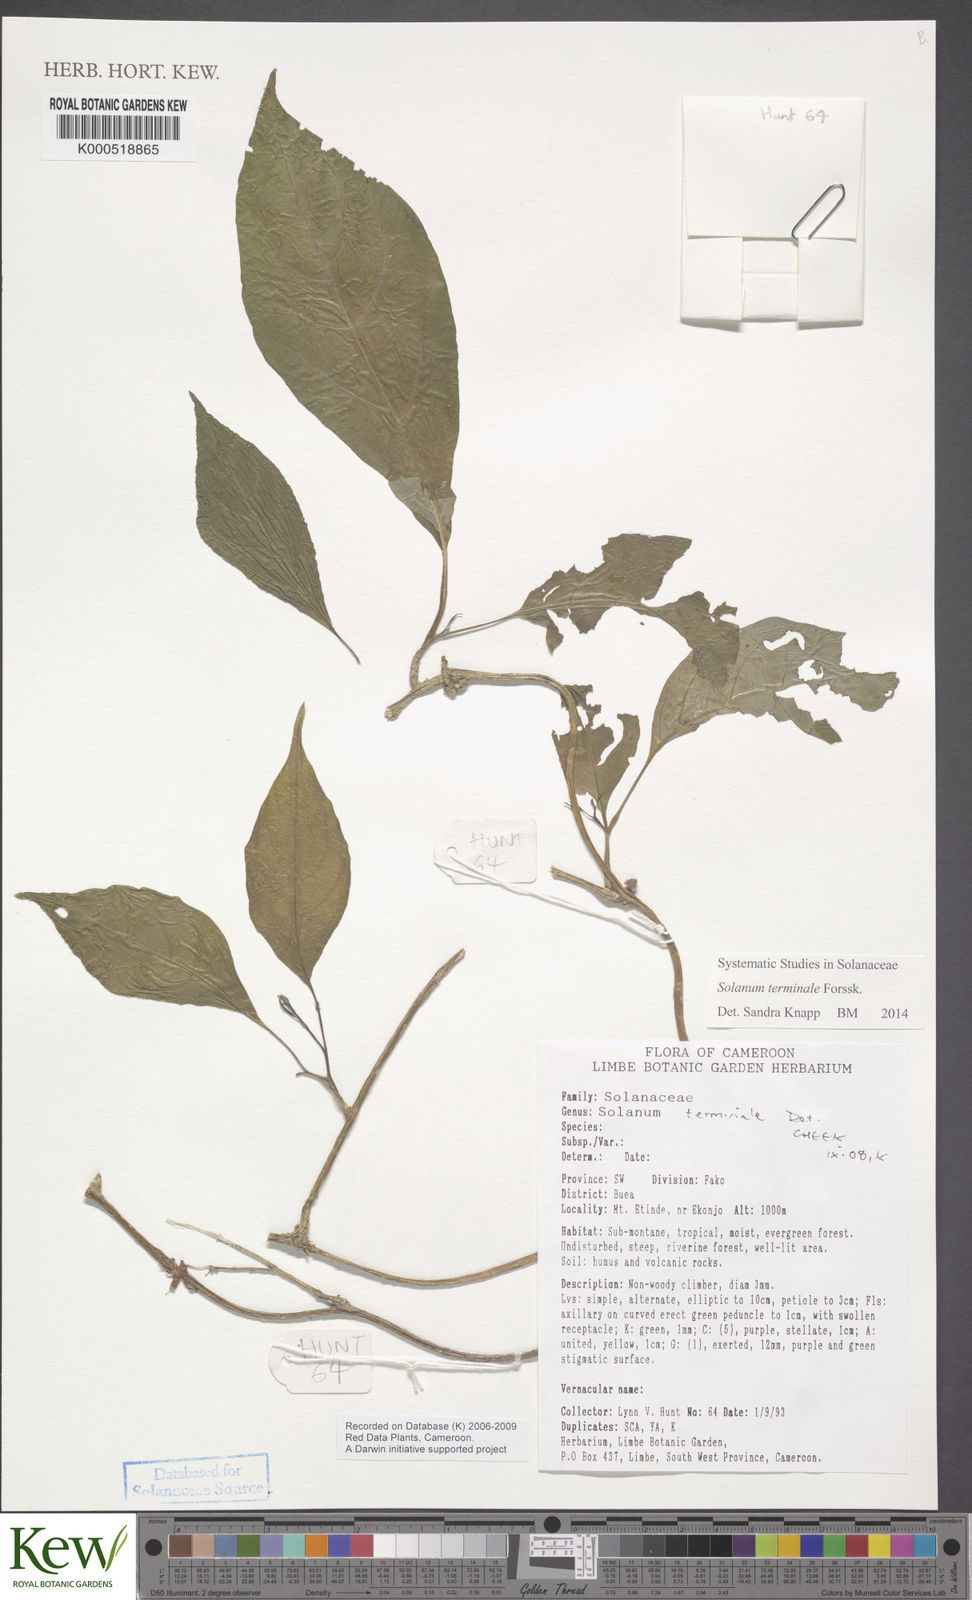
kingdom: Plantae
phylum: Tracheophyta
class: Magnoliopsida
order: Solanales
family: Solanaceae
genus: Solanum
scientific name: Solanum terminale
